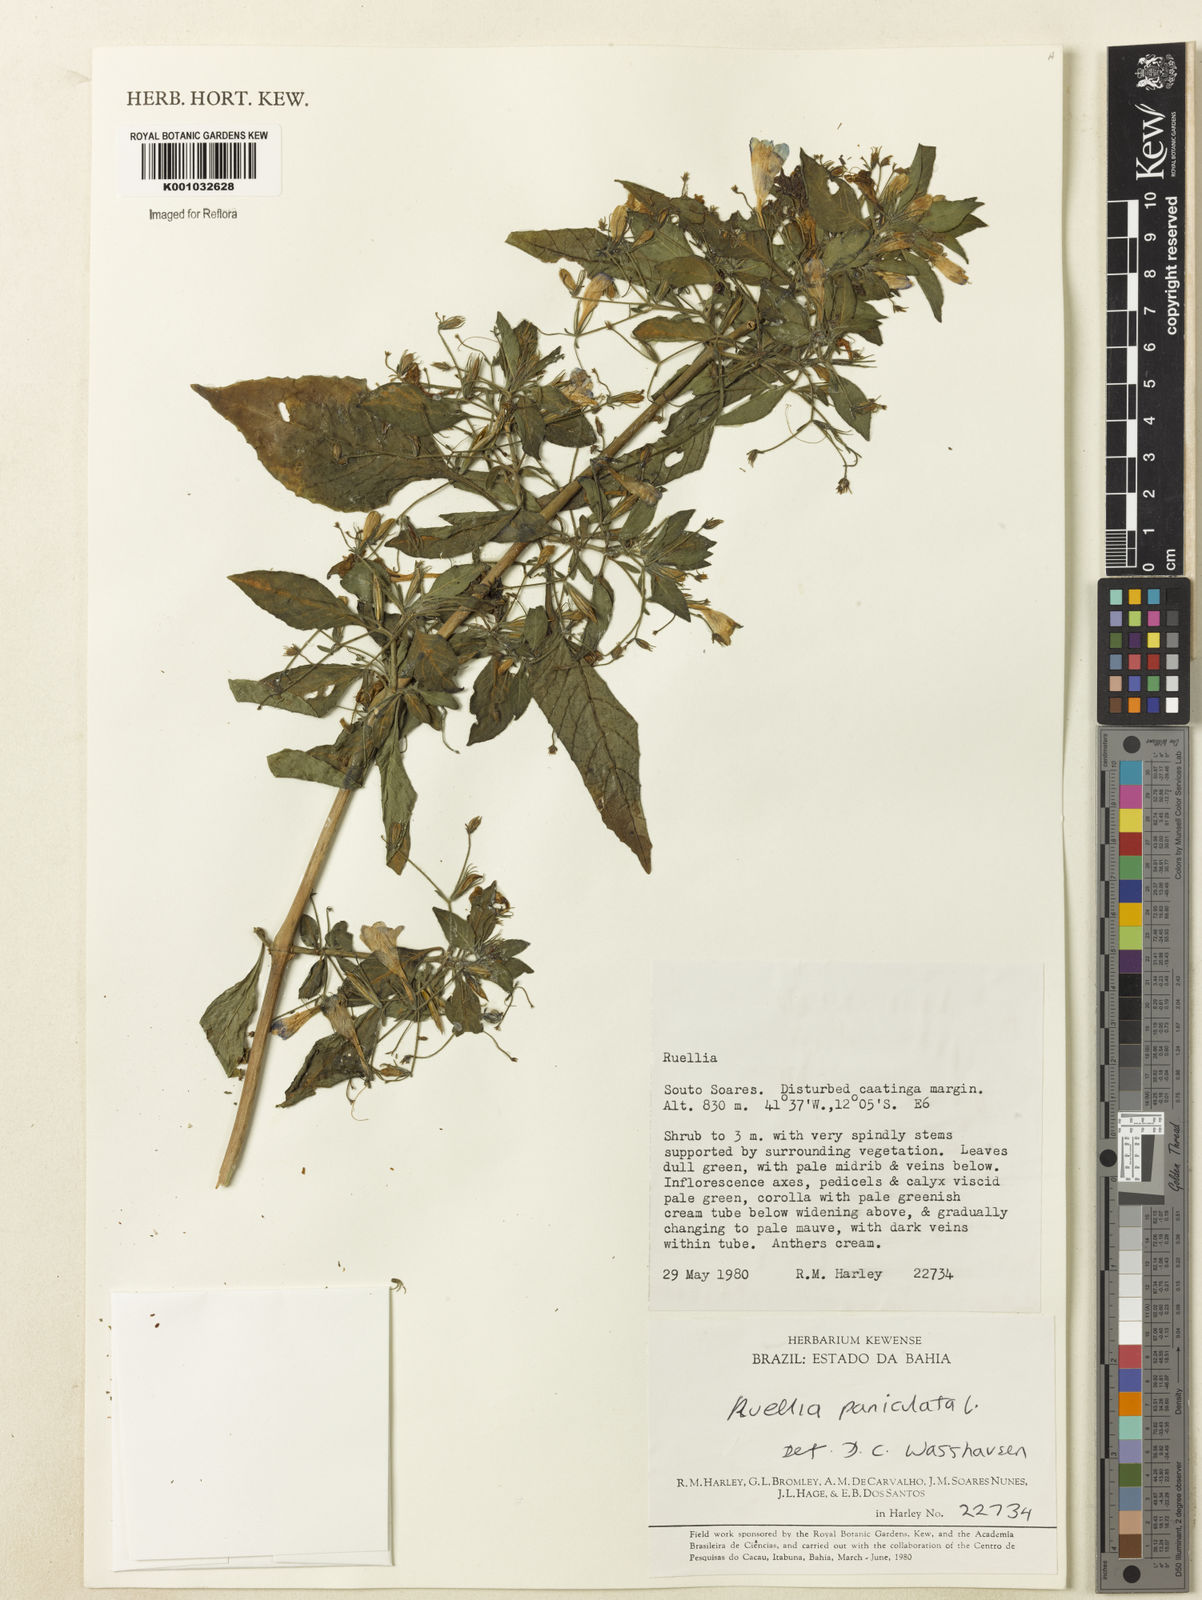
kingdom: Plantae
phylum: Tracheophyta
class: Magnoliopsida
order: Lamiales
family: Acanthaceae
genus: Ruellia
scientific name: Ruellia paniculata
